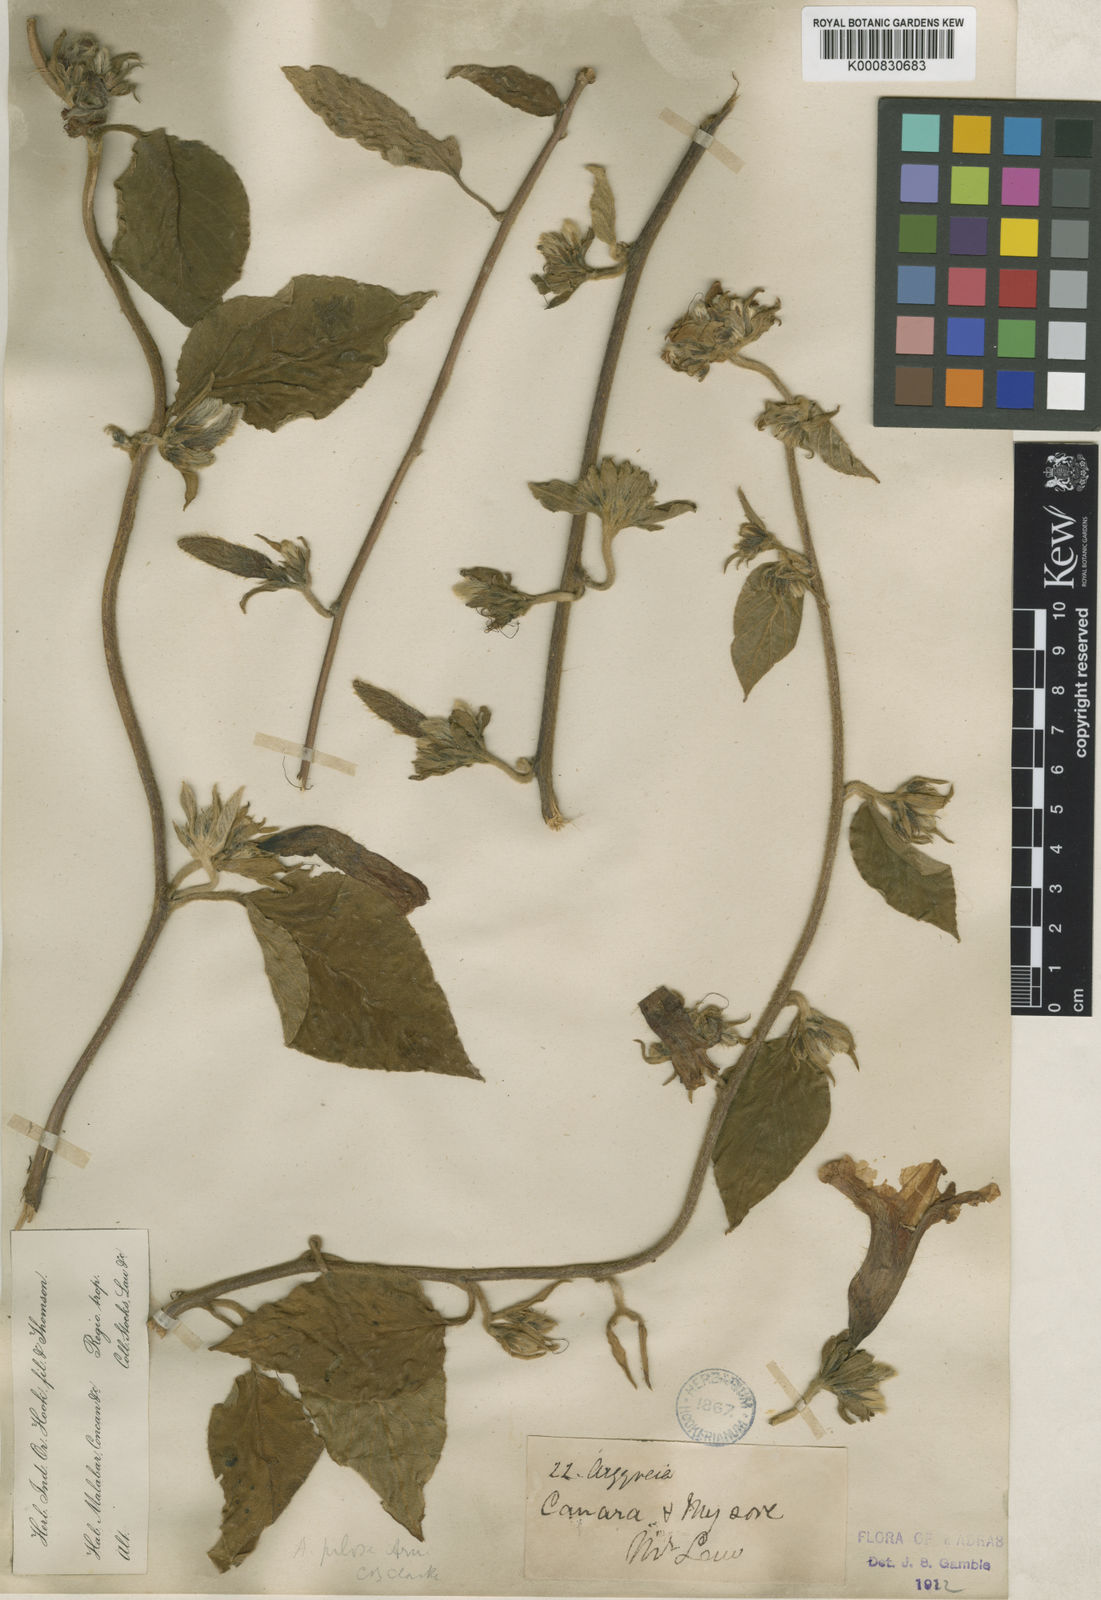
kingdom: Plantae
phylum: Tracheophyta
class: Magnoliopsida
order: Solanales
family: Convolvulaceae
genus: Argyreia
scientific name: Argyreia srinivasanii
